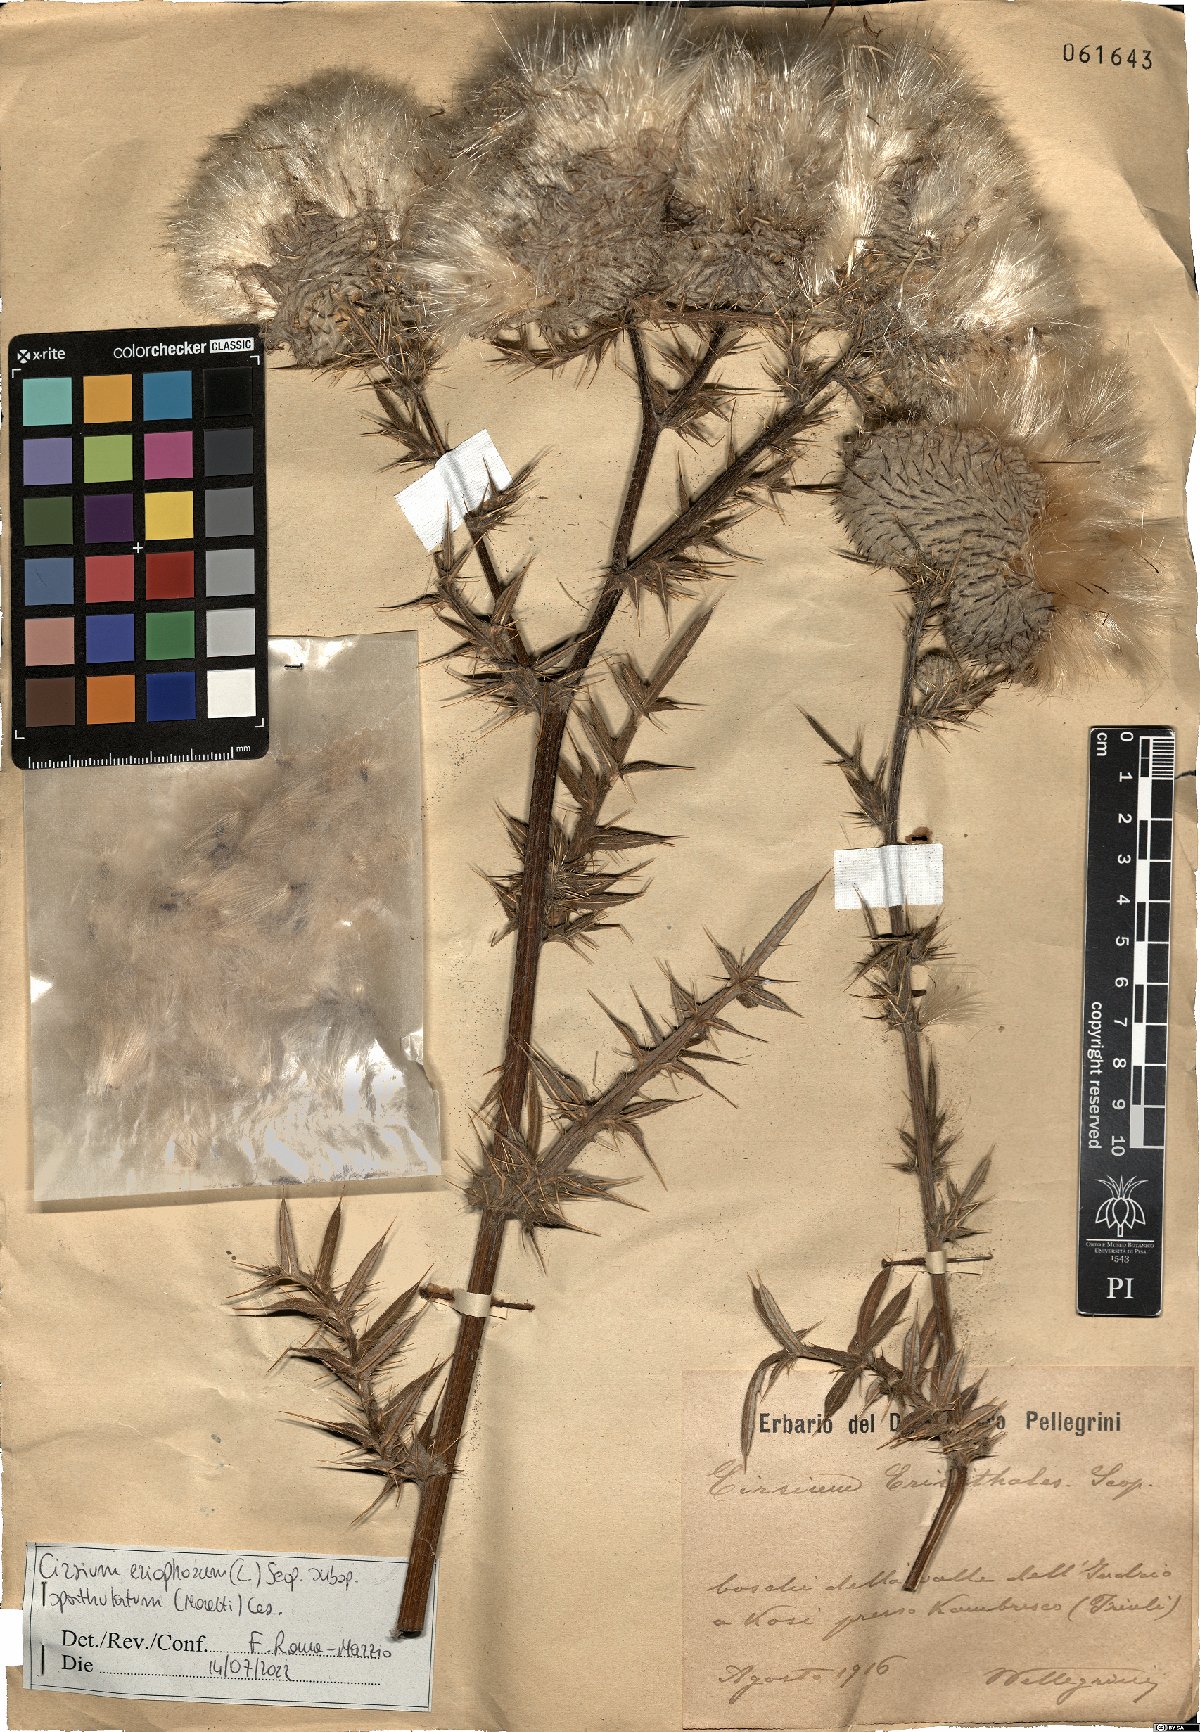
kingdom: Plantae
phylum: Tracheophyta
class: Magnoliopsida
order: Asterales
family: Asteraceae
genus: Lophiolepis
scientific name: Lophiolepis spathulata
